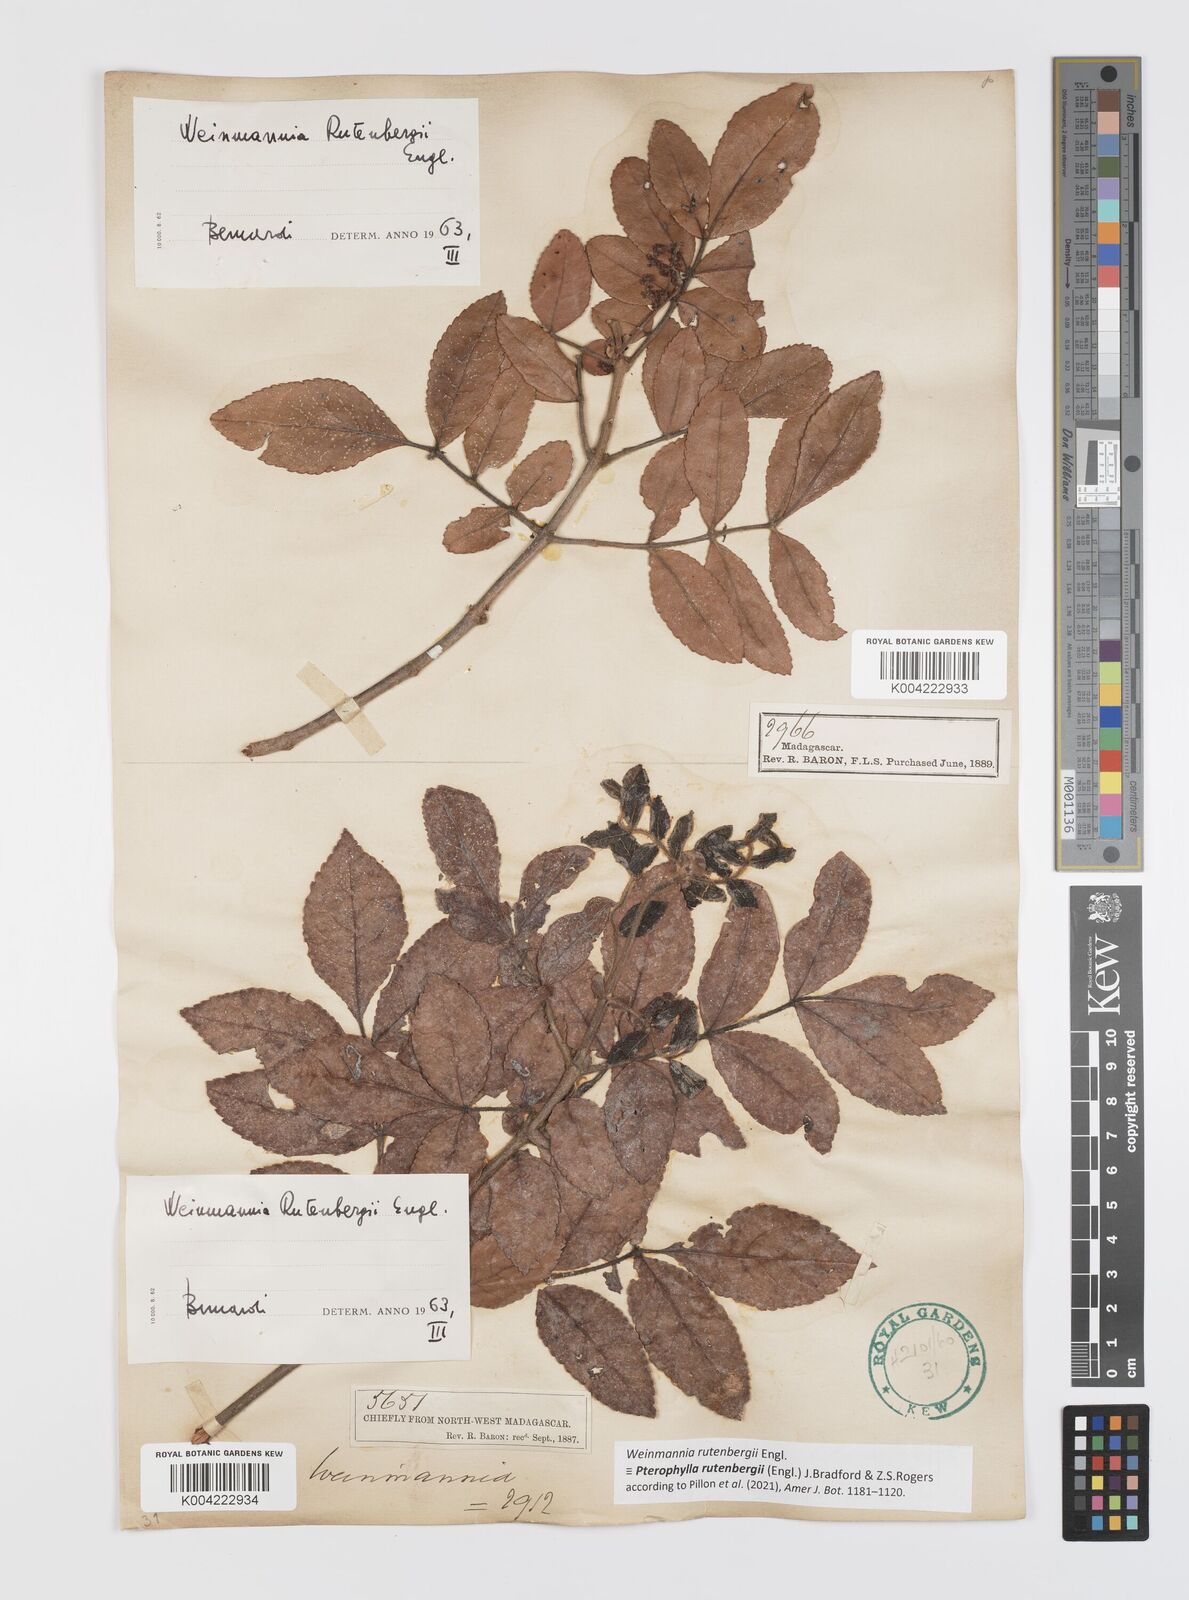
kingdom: Plantae
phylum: Tracheophyta
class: Magnoliopsida
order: Oxalidales
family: Cunoniaceae
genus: Pterophylla
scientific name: Pterophylla rutenbergii
